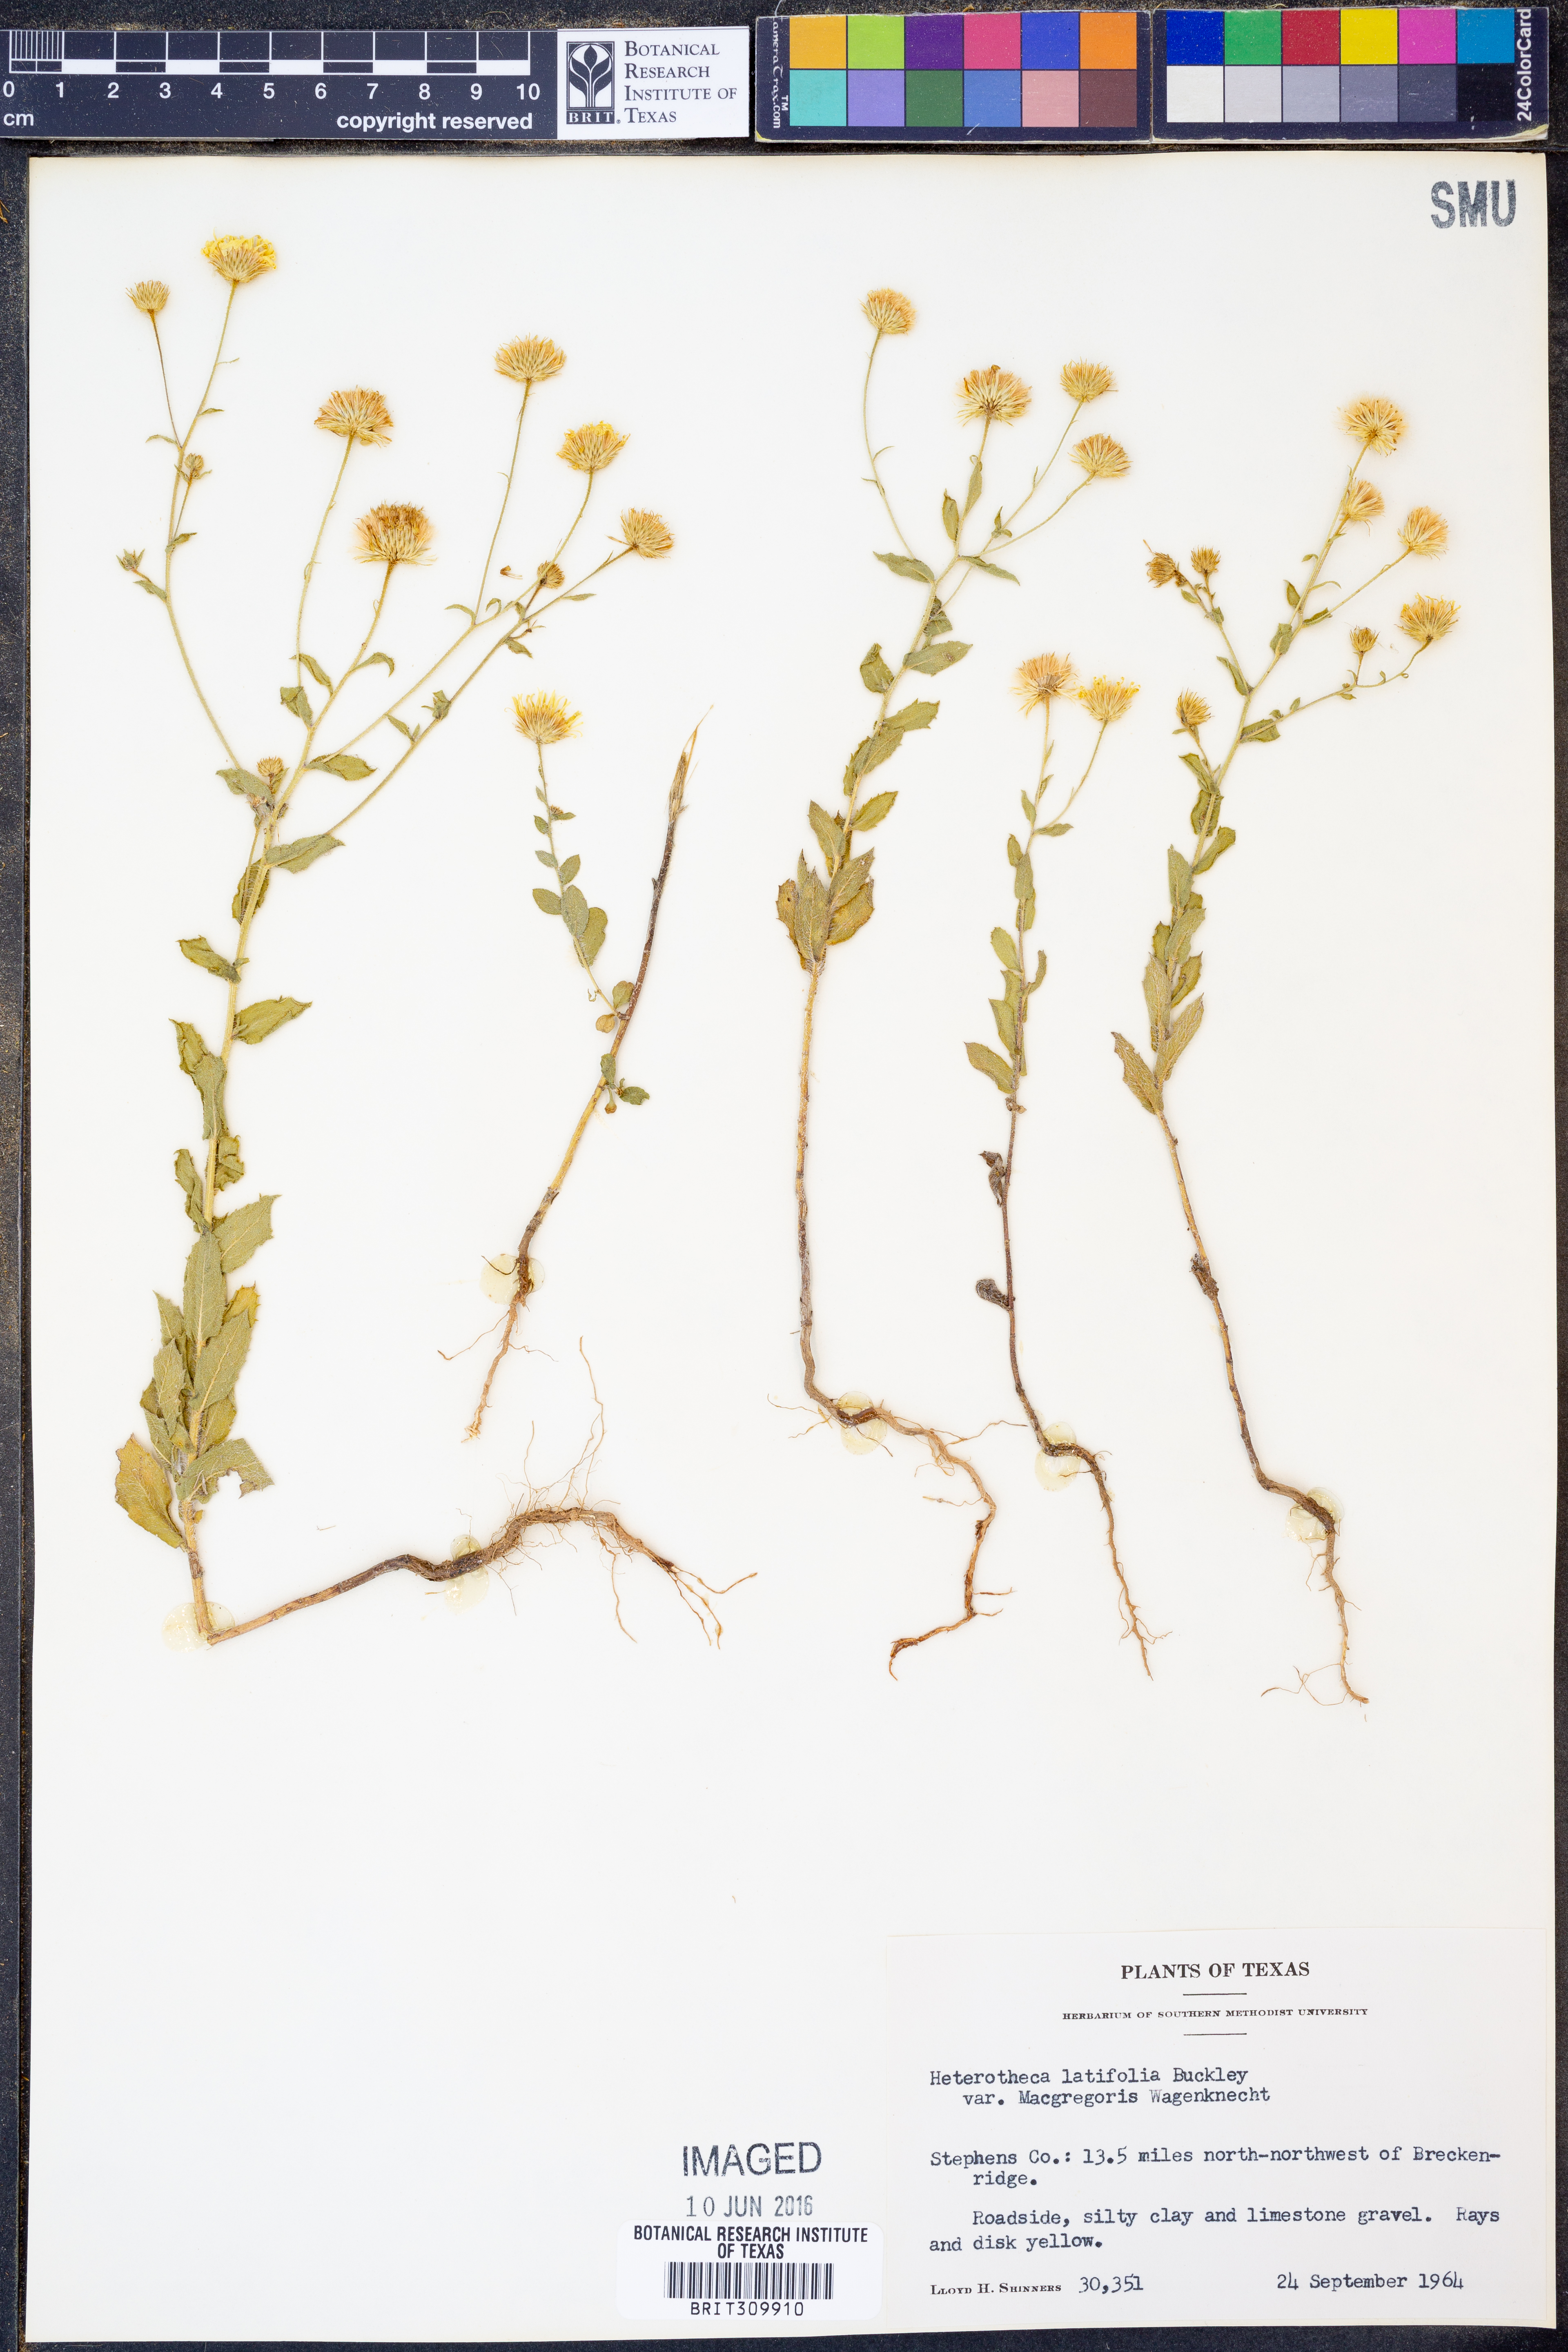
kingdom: Plantae
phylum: Tracheophyta
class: Magnoliopsida
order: Asterales
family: Asteraceae
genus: Heterotheca
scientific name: Heterotheca subaxillaris
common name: Camphorweed
